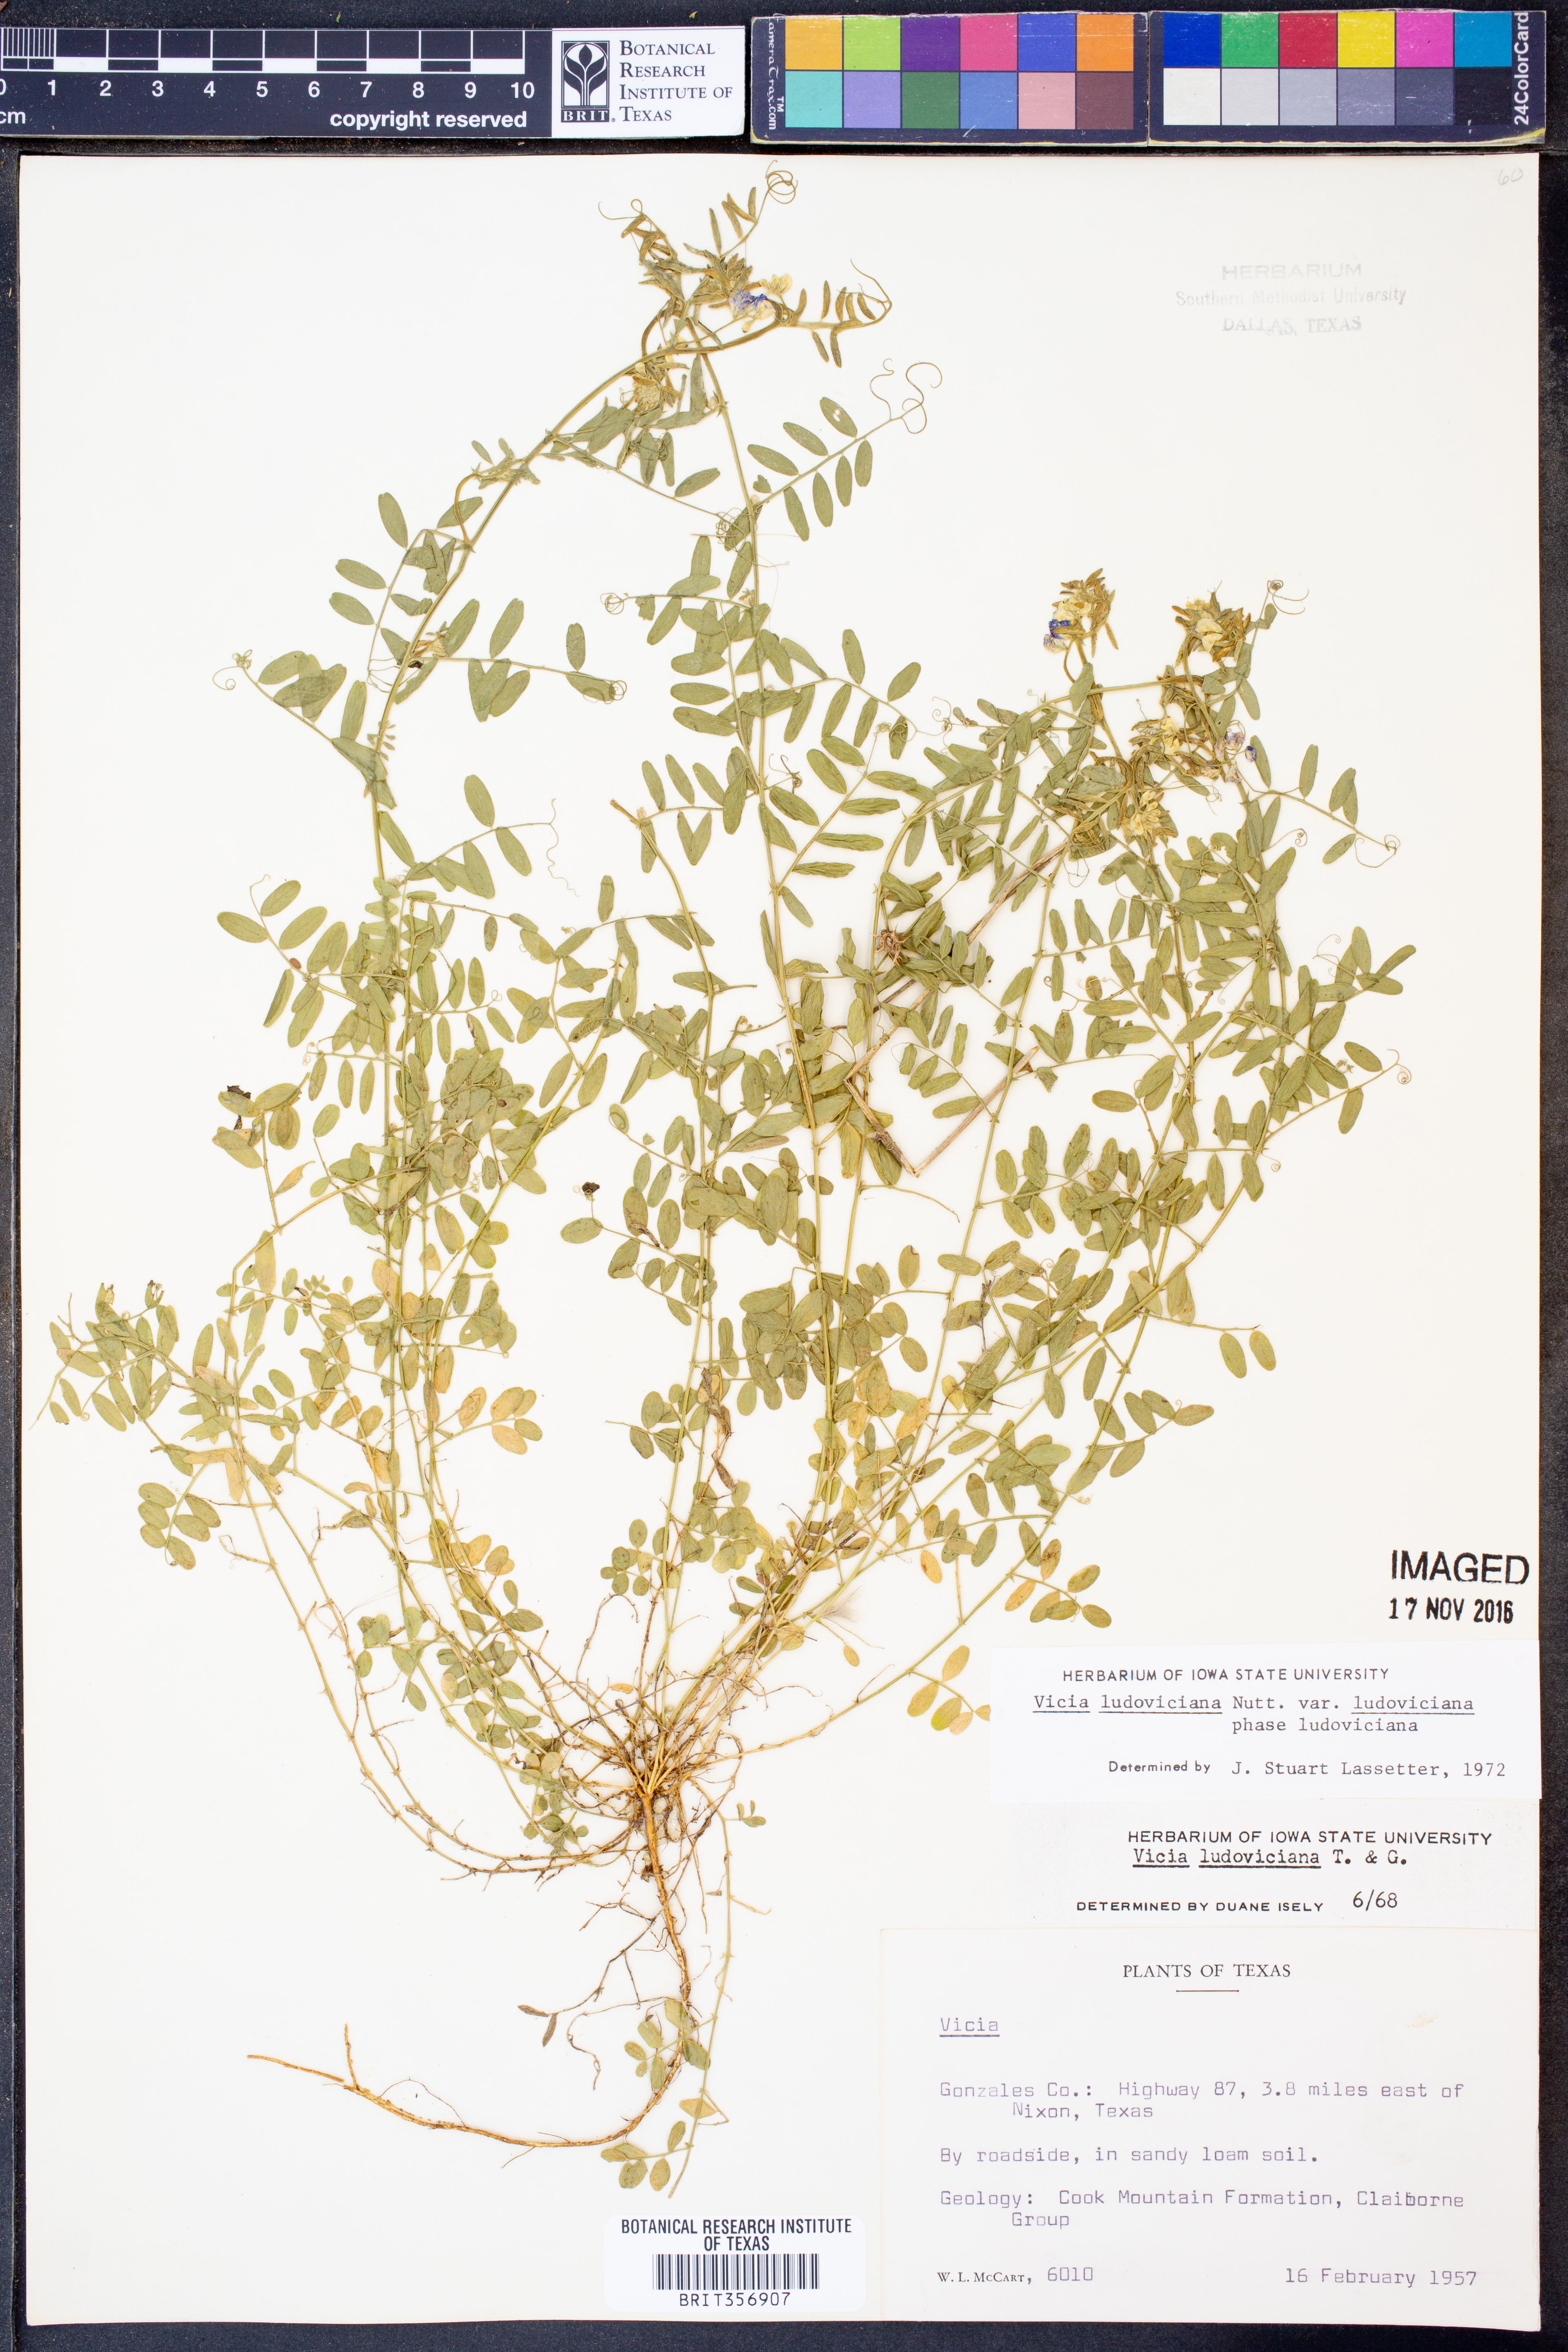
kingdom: Plantae
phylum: Tracheophyta
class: Magnoliopsida
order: Fabales
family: Fabaceae
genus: Vicia
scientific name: Vicia ludoviciana
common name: Louisiana vetch
